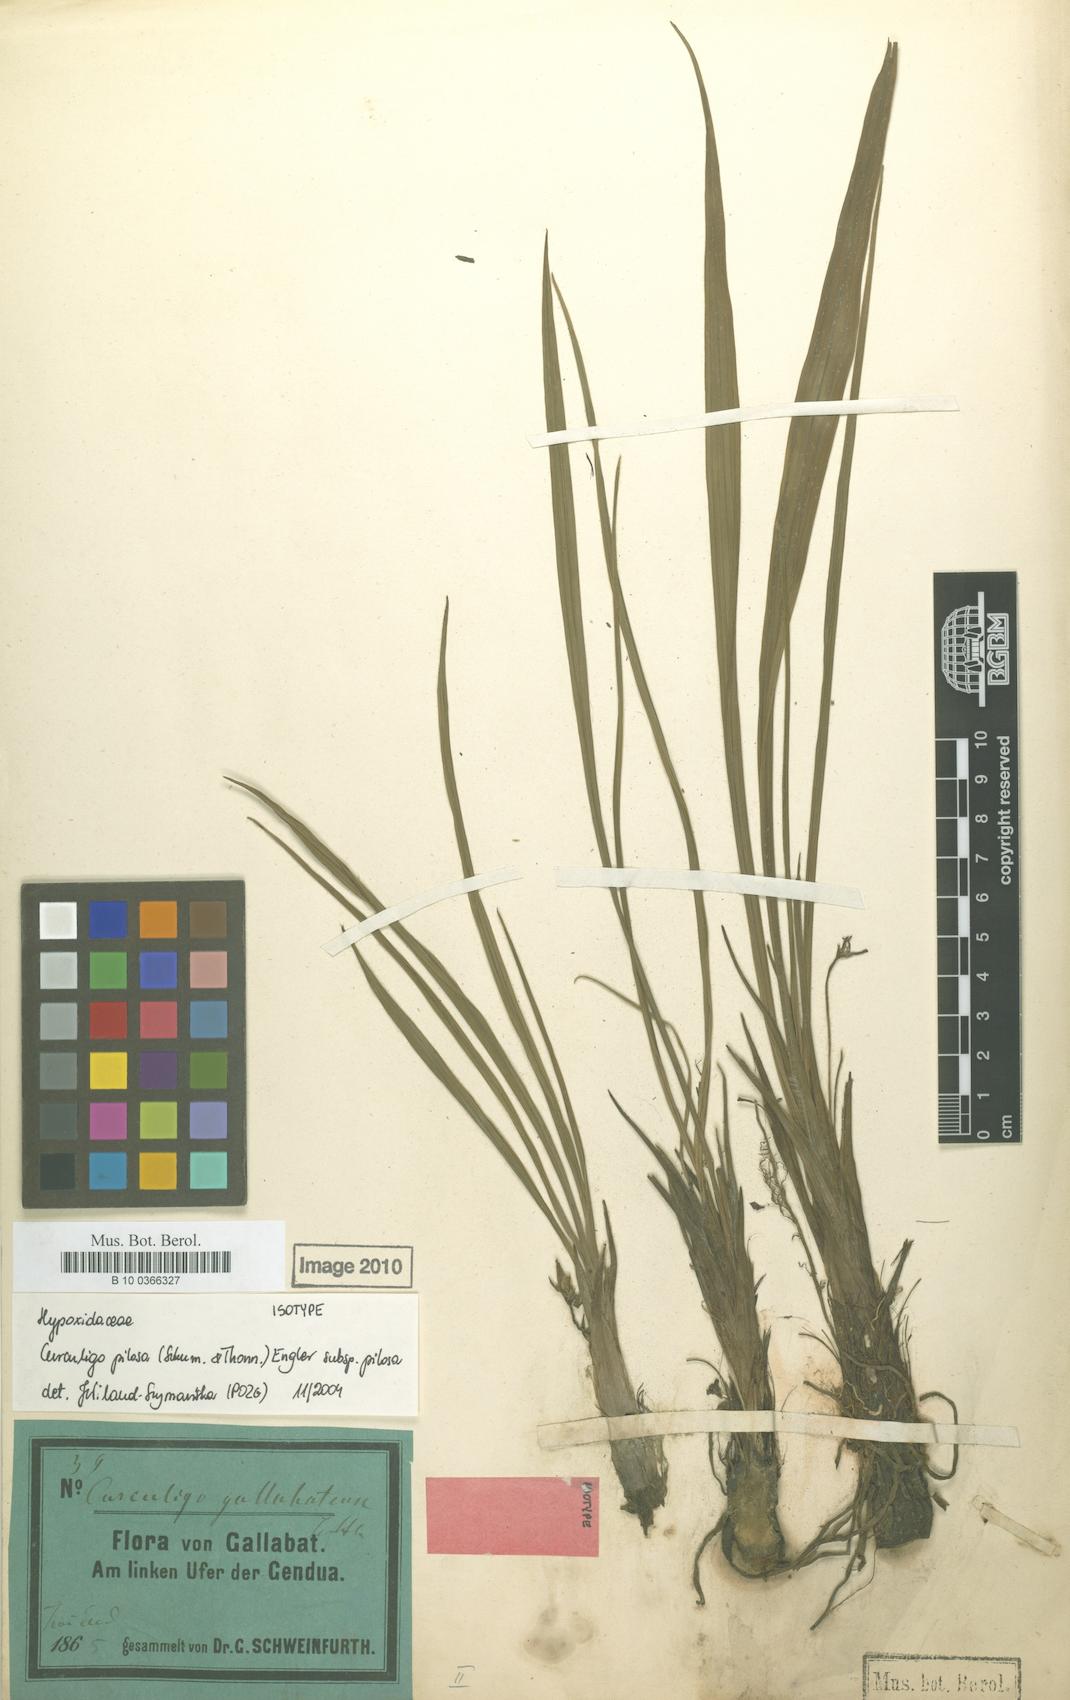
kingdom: Plantae
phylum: Tracheophyta
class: Liliopsida
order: Asparagales
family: Hypoxidaceae
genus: Curculigo
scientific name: Curculigo pilosa
